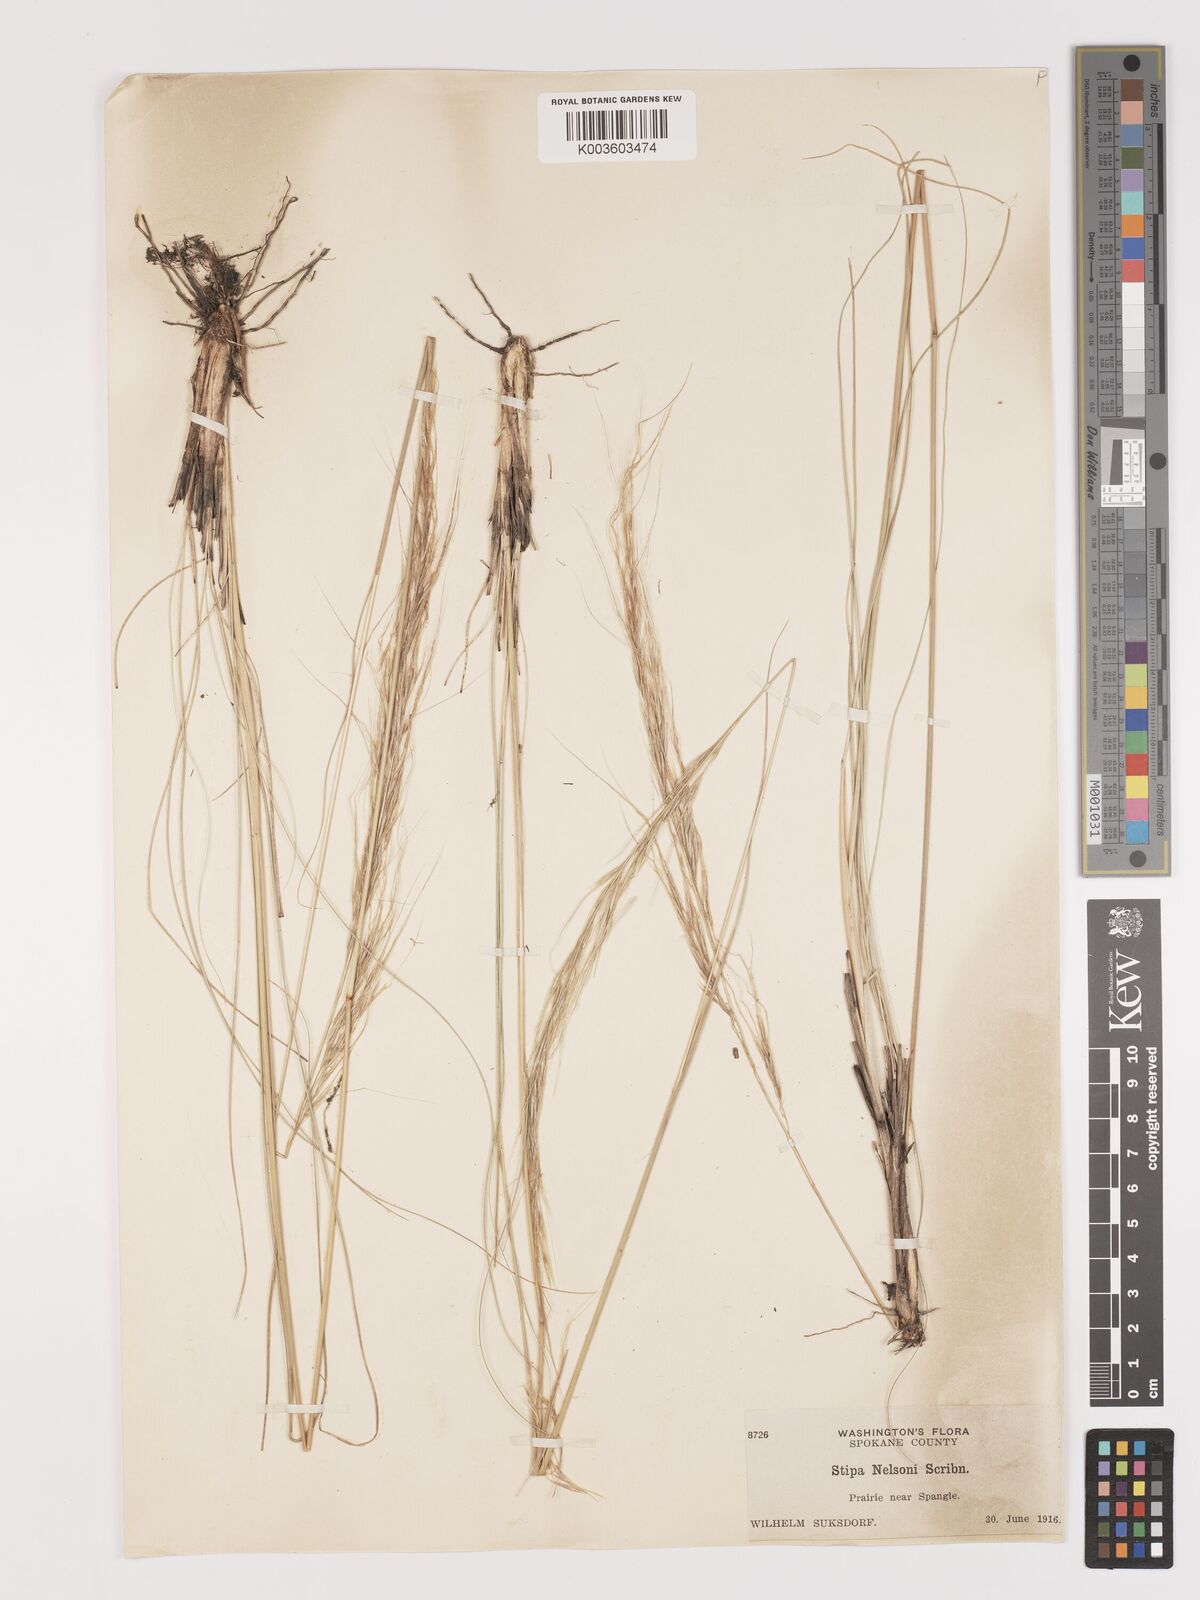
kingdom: Plantae
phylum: Tracheophyta
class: Liliopsida
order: Poales
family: Poaceae
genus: Eriocoma
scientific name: Eriocoma nelsonii
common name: Nelson's needlegrass
